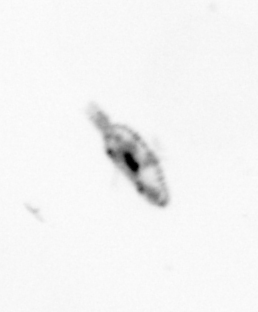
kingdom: Animalia
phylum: Arthropoda
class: Copepoda
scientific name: Copepoda
